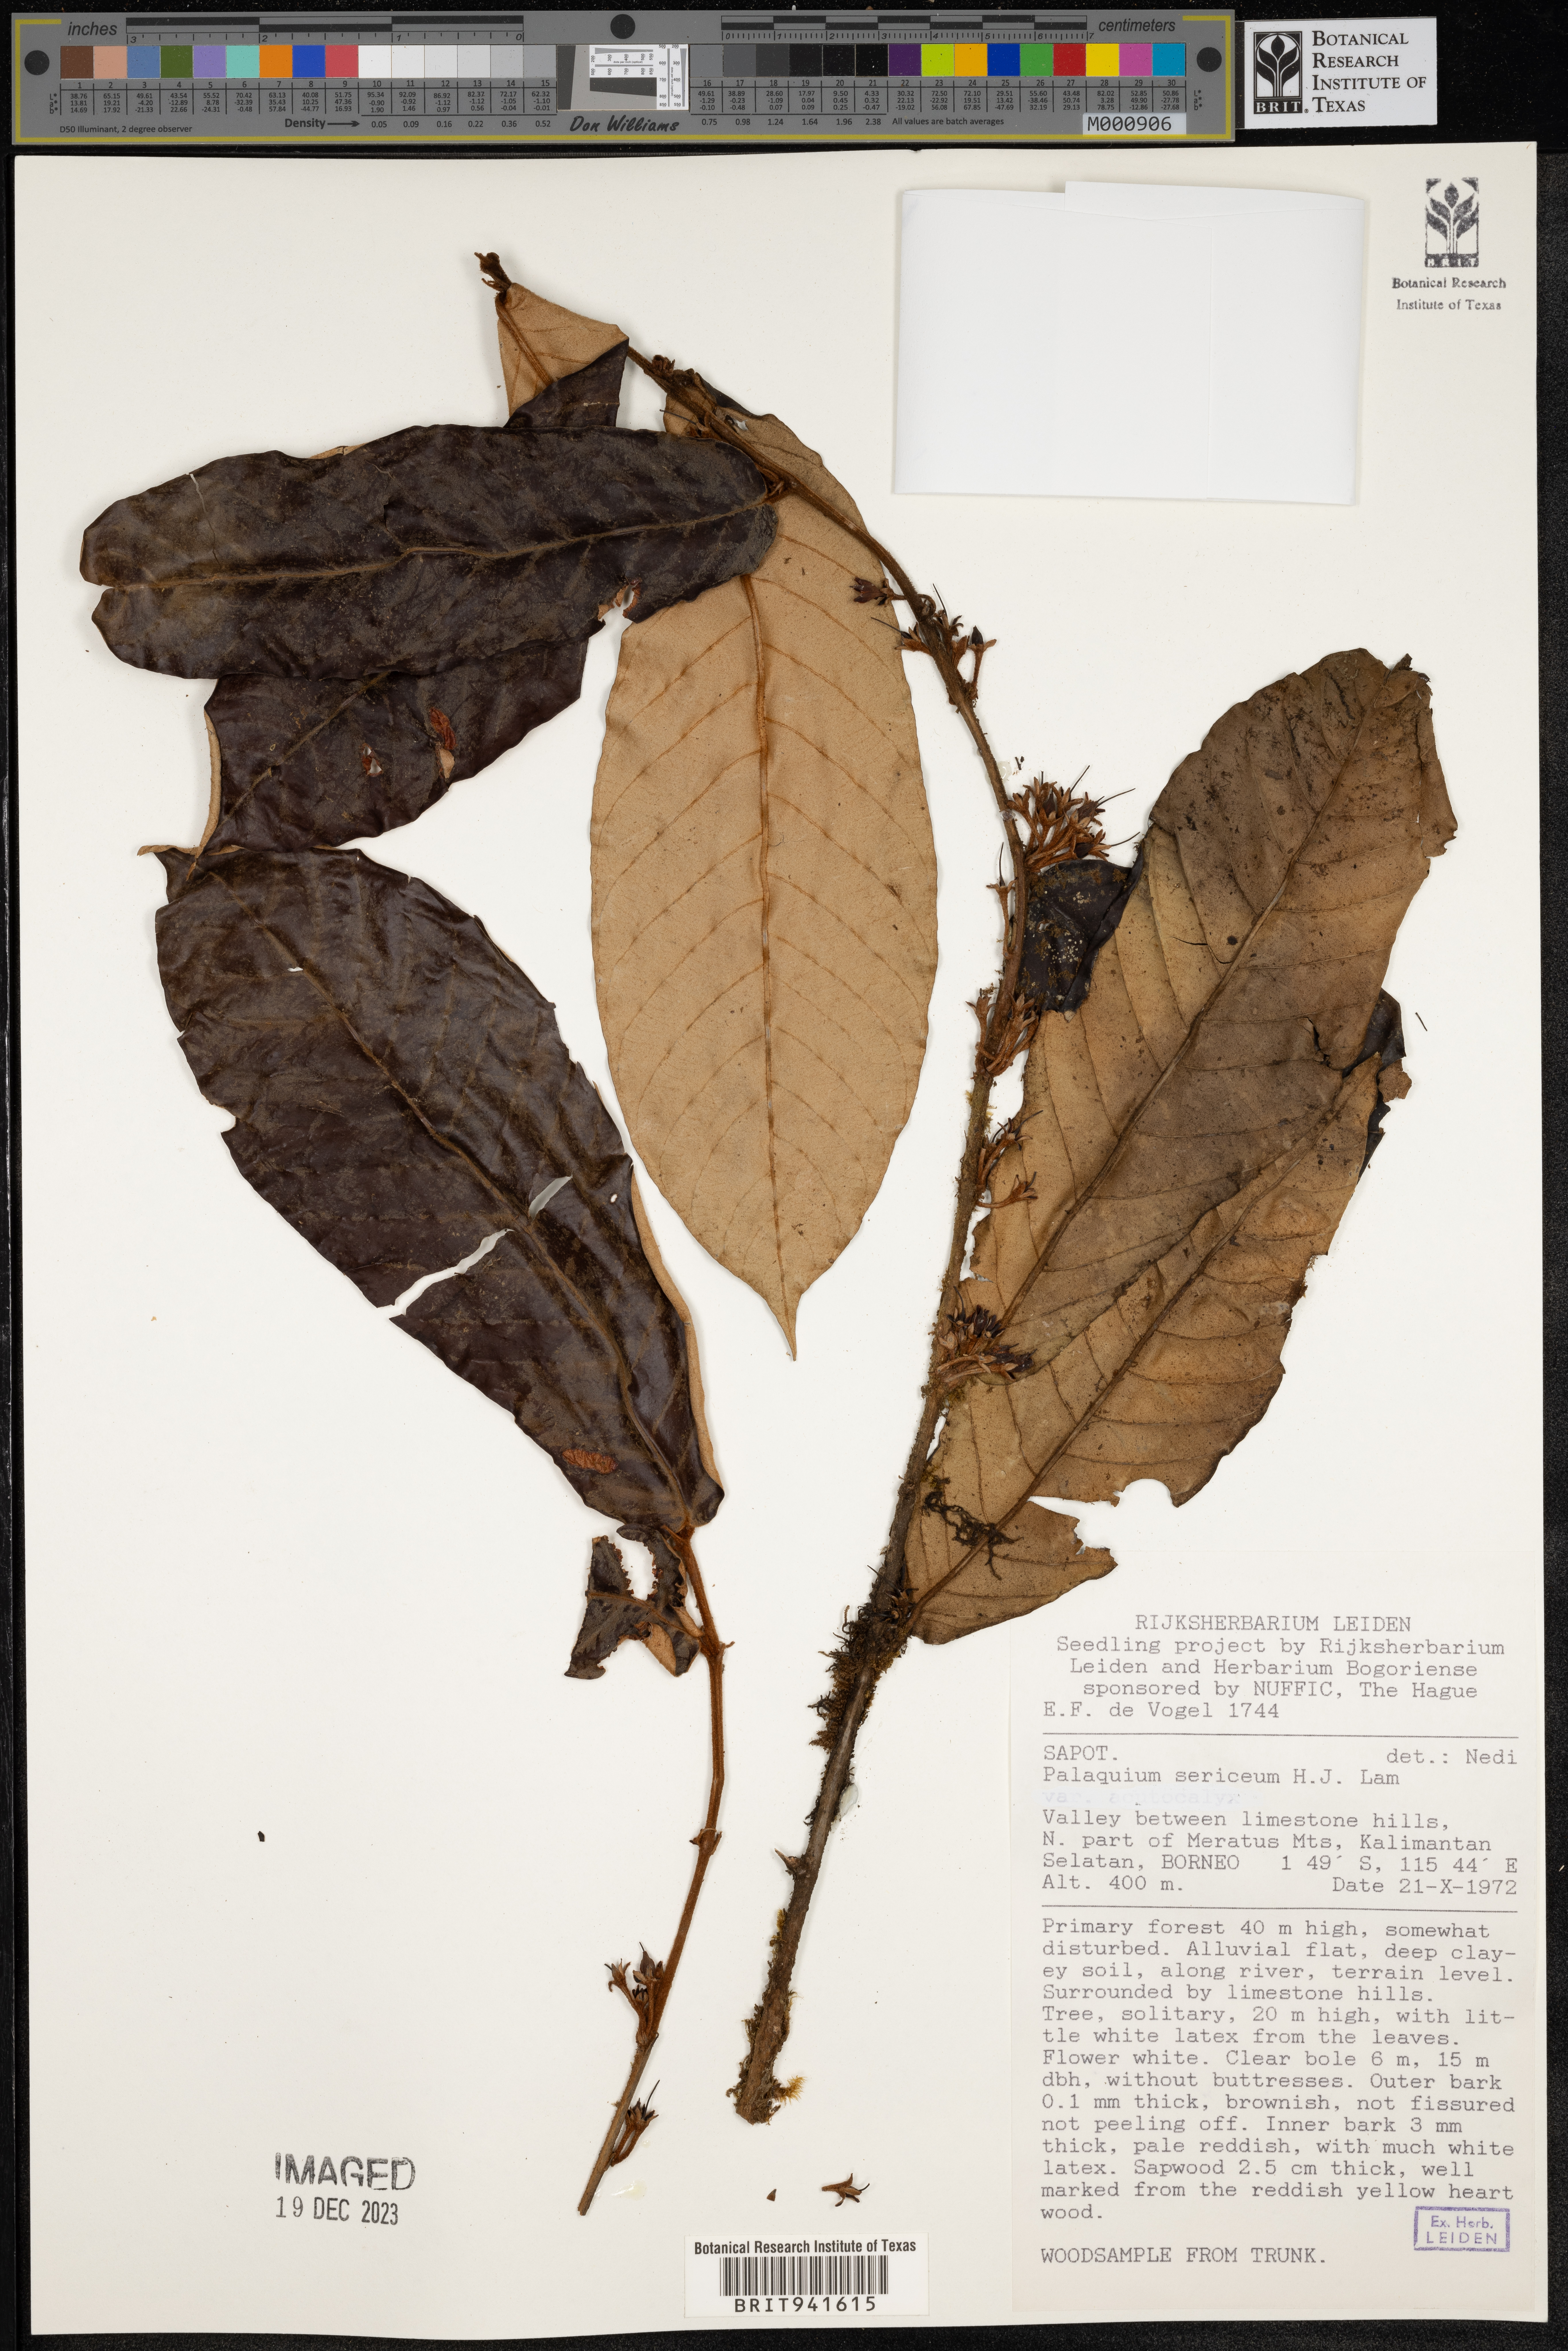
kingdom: Plantae
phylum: Tracheophyta
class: Magnoliopsida
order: Ericales
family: Sapotaceae
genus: Palaquium
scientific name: Palaquium
